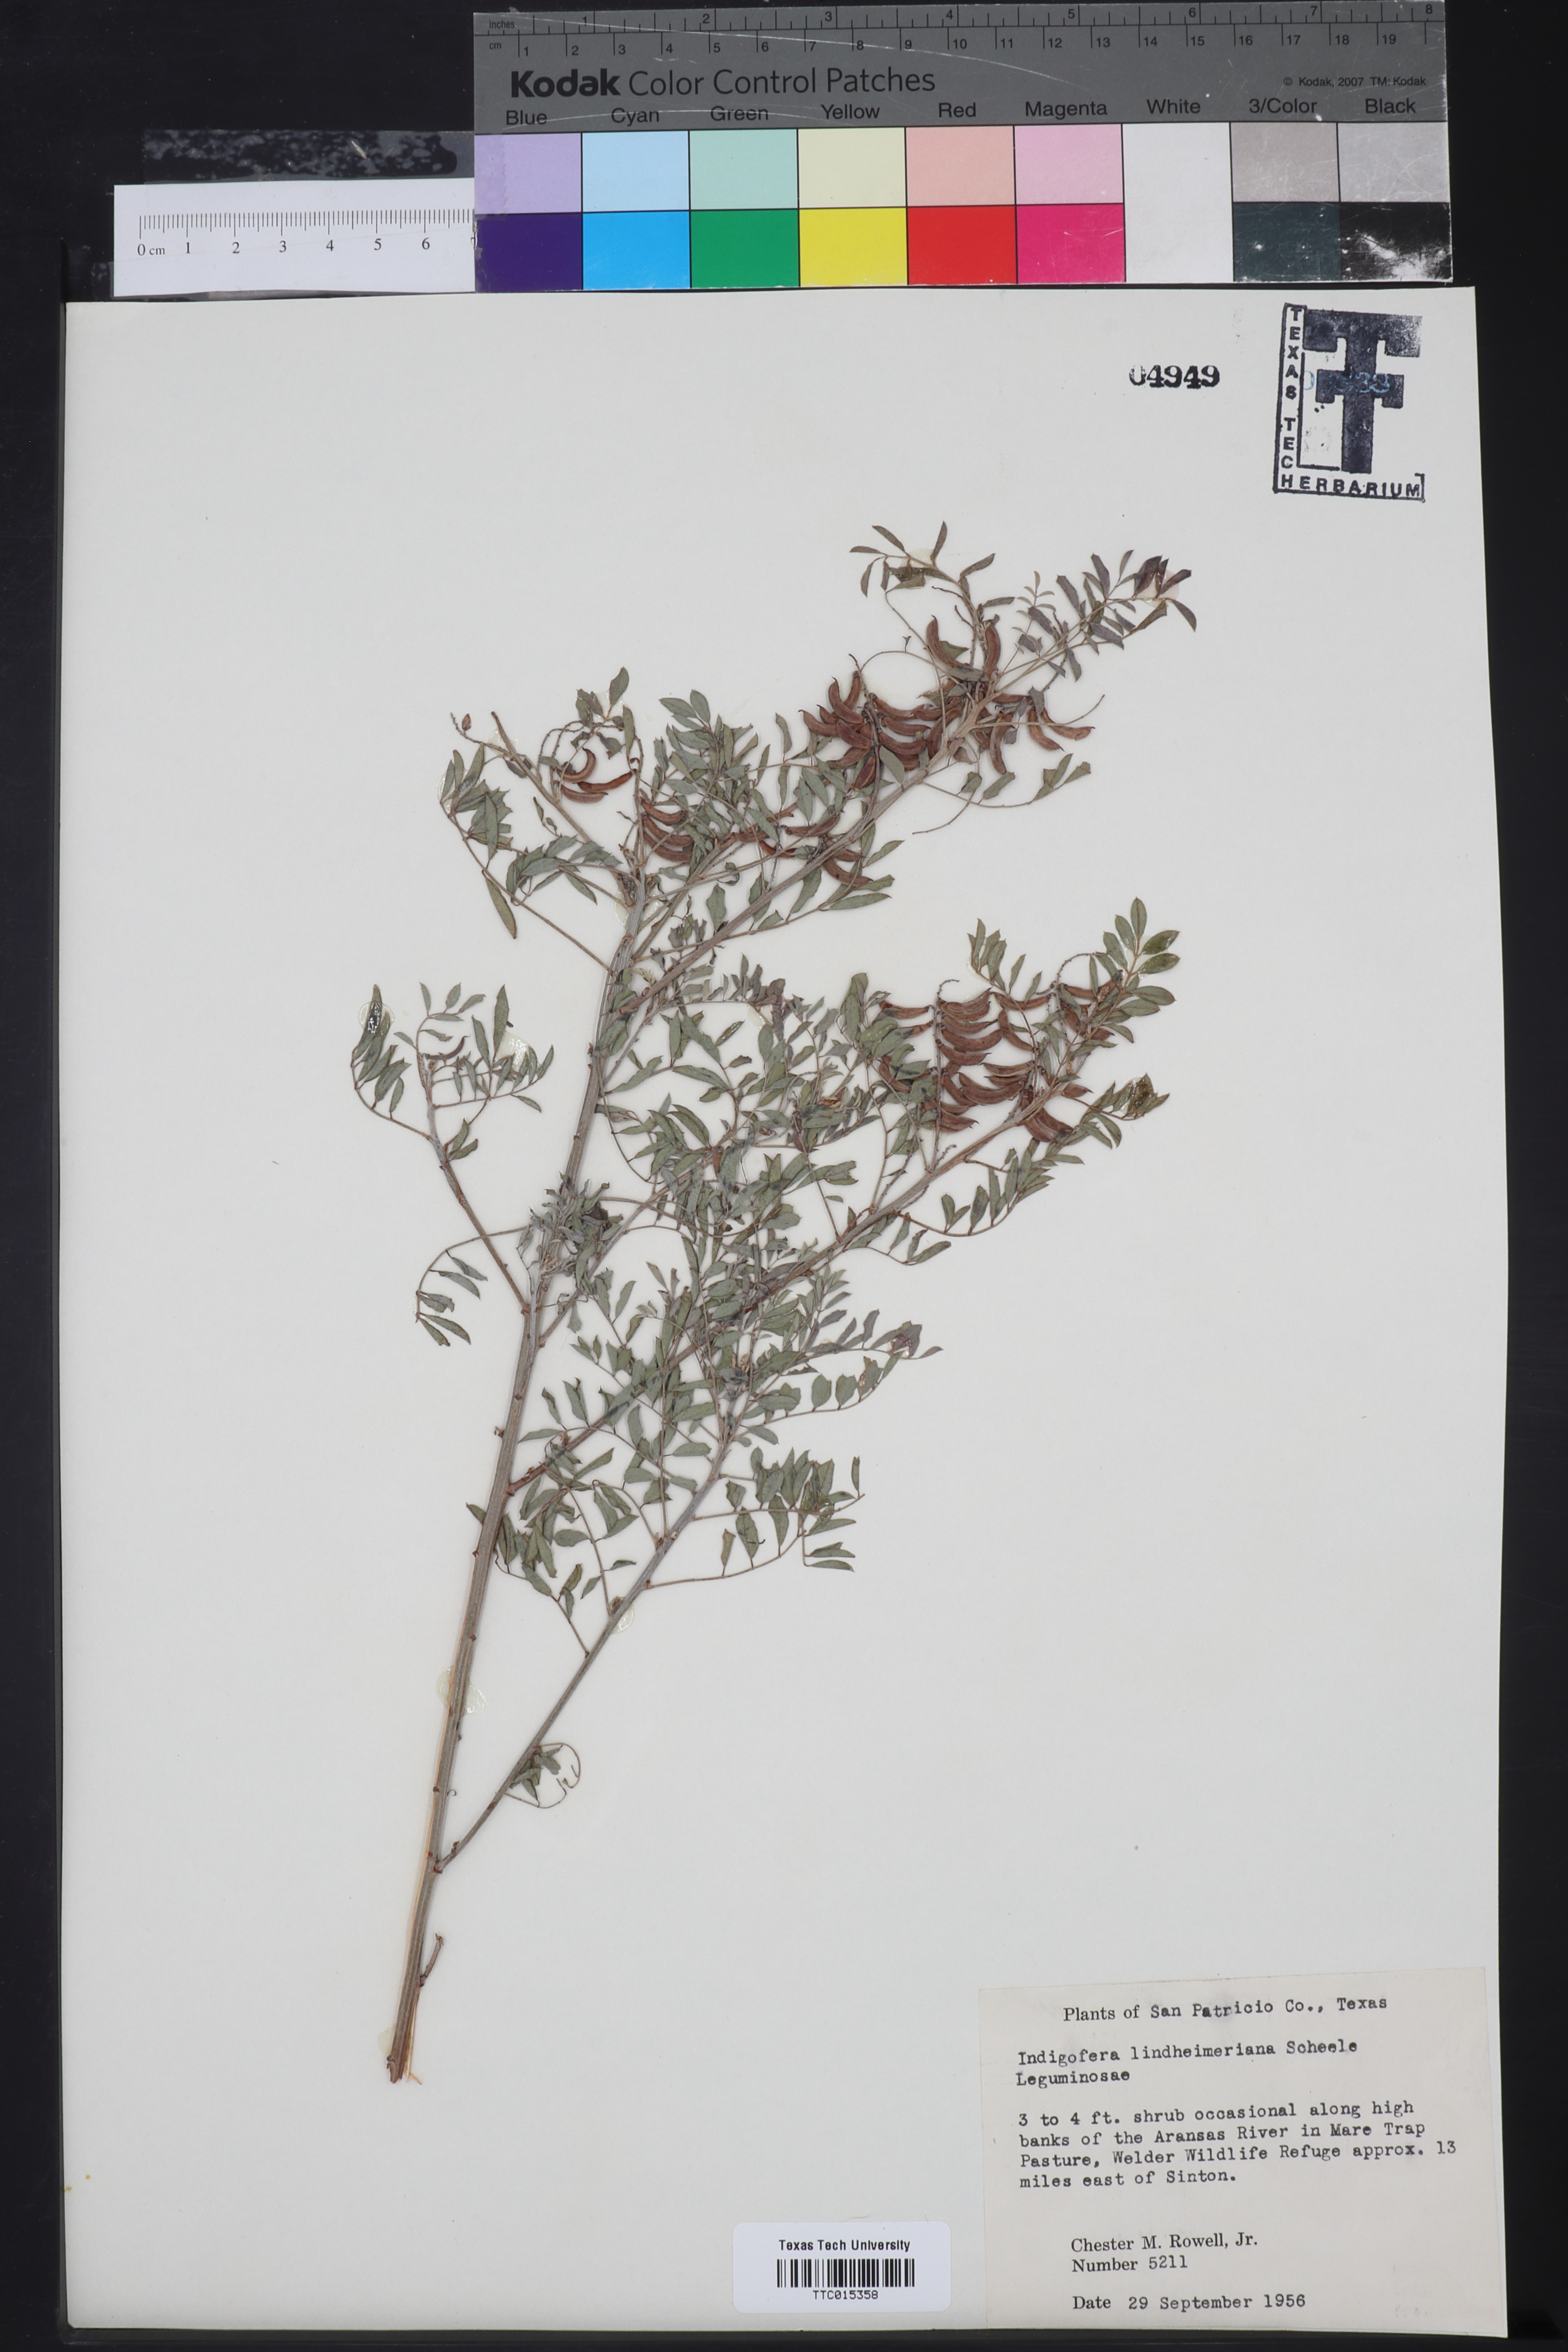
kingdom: Plantae
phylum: Tracheophyta
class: Magnoliopsida
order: Fabales
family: Fabaceae
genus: Indigofera
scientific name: Indigofera lindheimeriana
